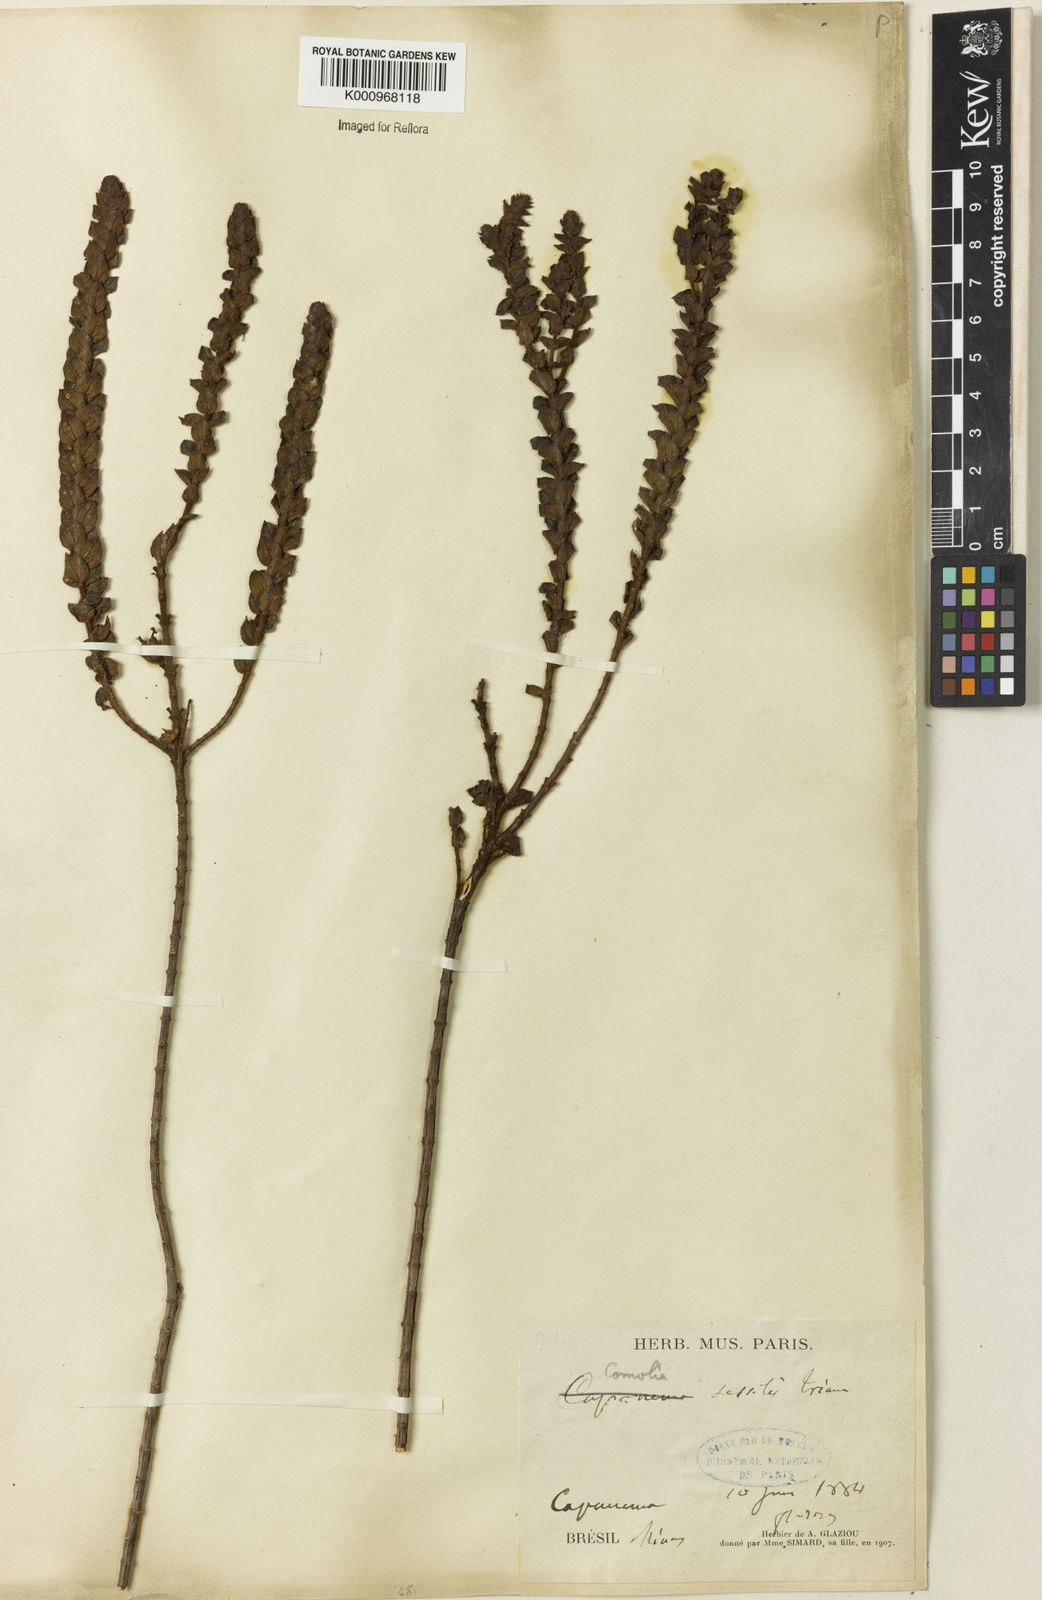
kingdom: Plantae
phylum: Tracheophyta
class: Magnoliopsida
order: Myrtales
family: Melastomataceae
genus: Fritzschia
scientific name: Fritzschia sessilis
